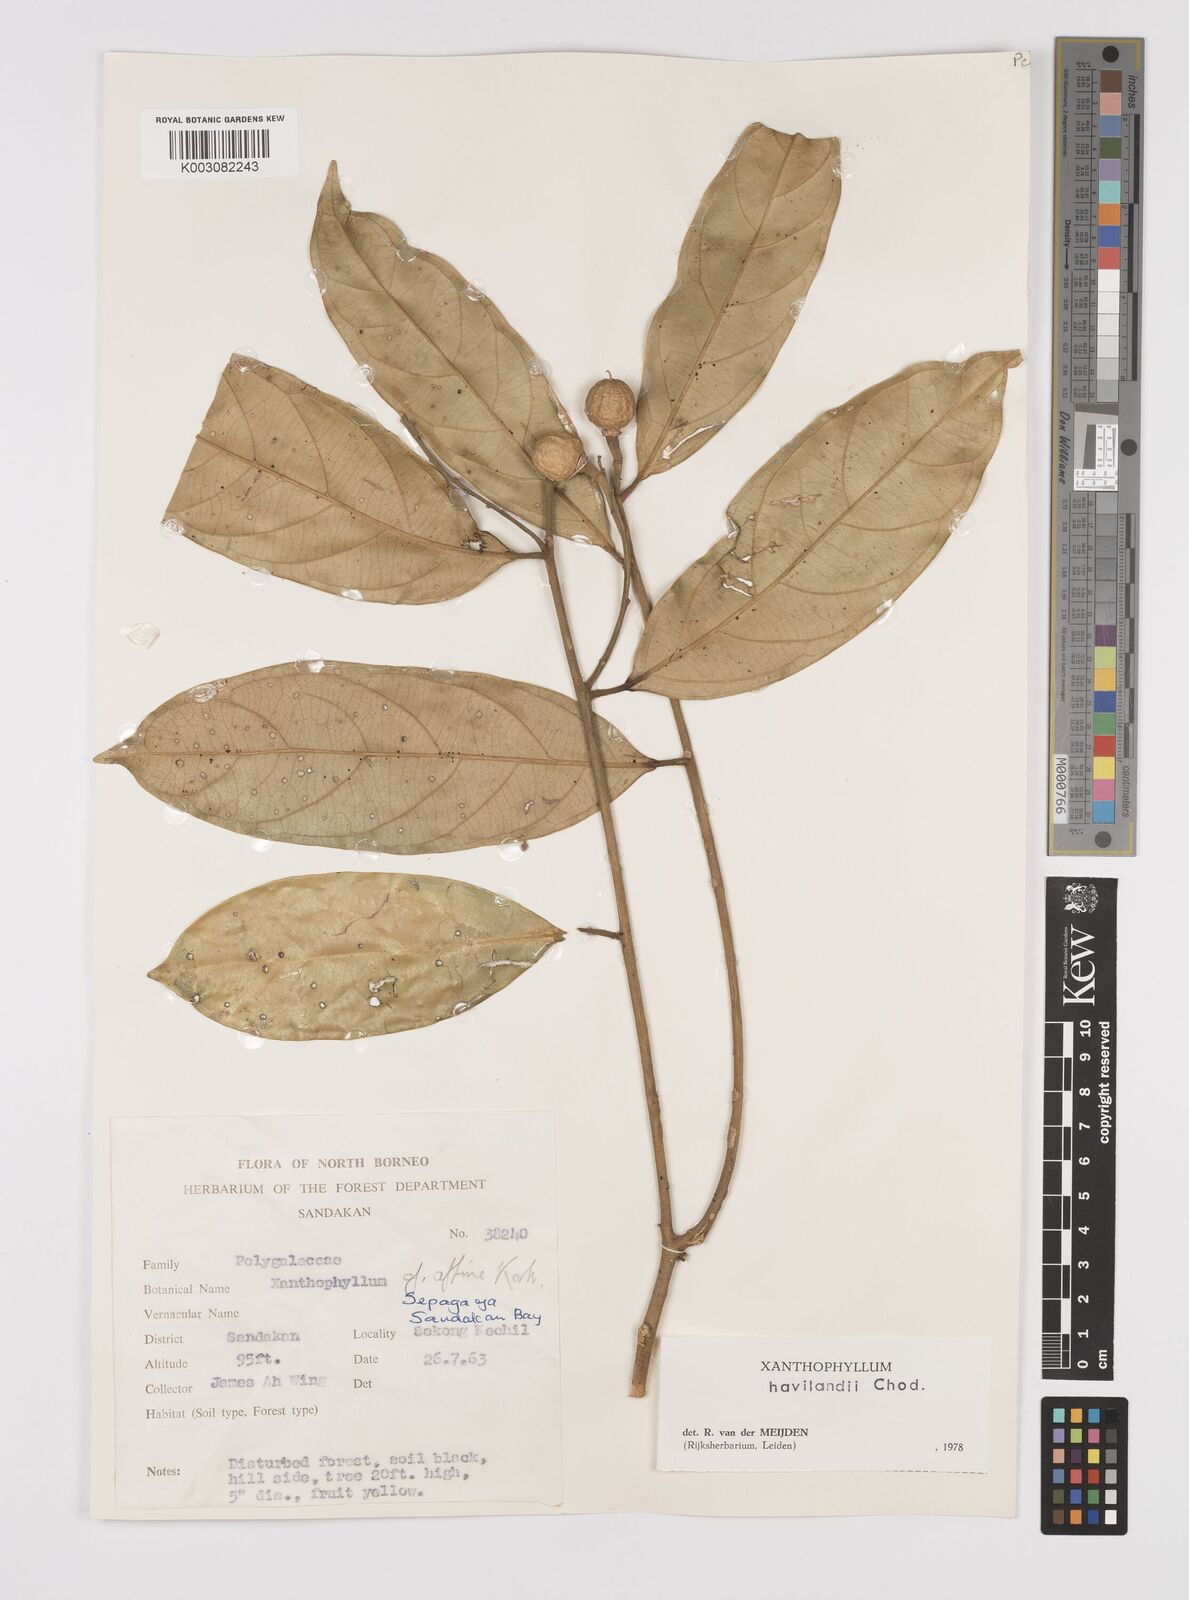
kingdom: Plantae
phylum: Tracheophyta
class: Magnoliopsida
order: Fabales
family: Polygalaceae
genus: Xanthophyllum
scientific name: Xanthophyllum flavescens
